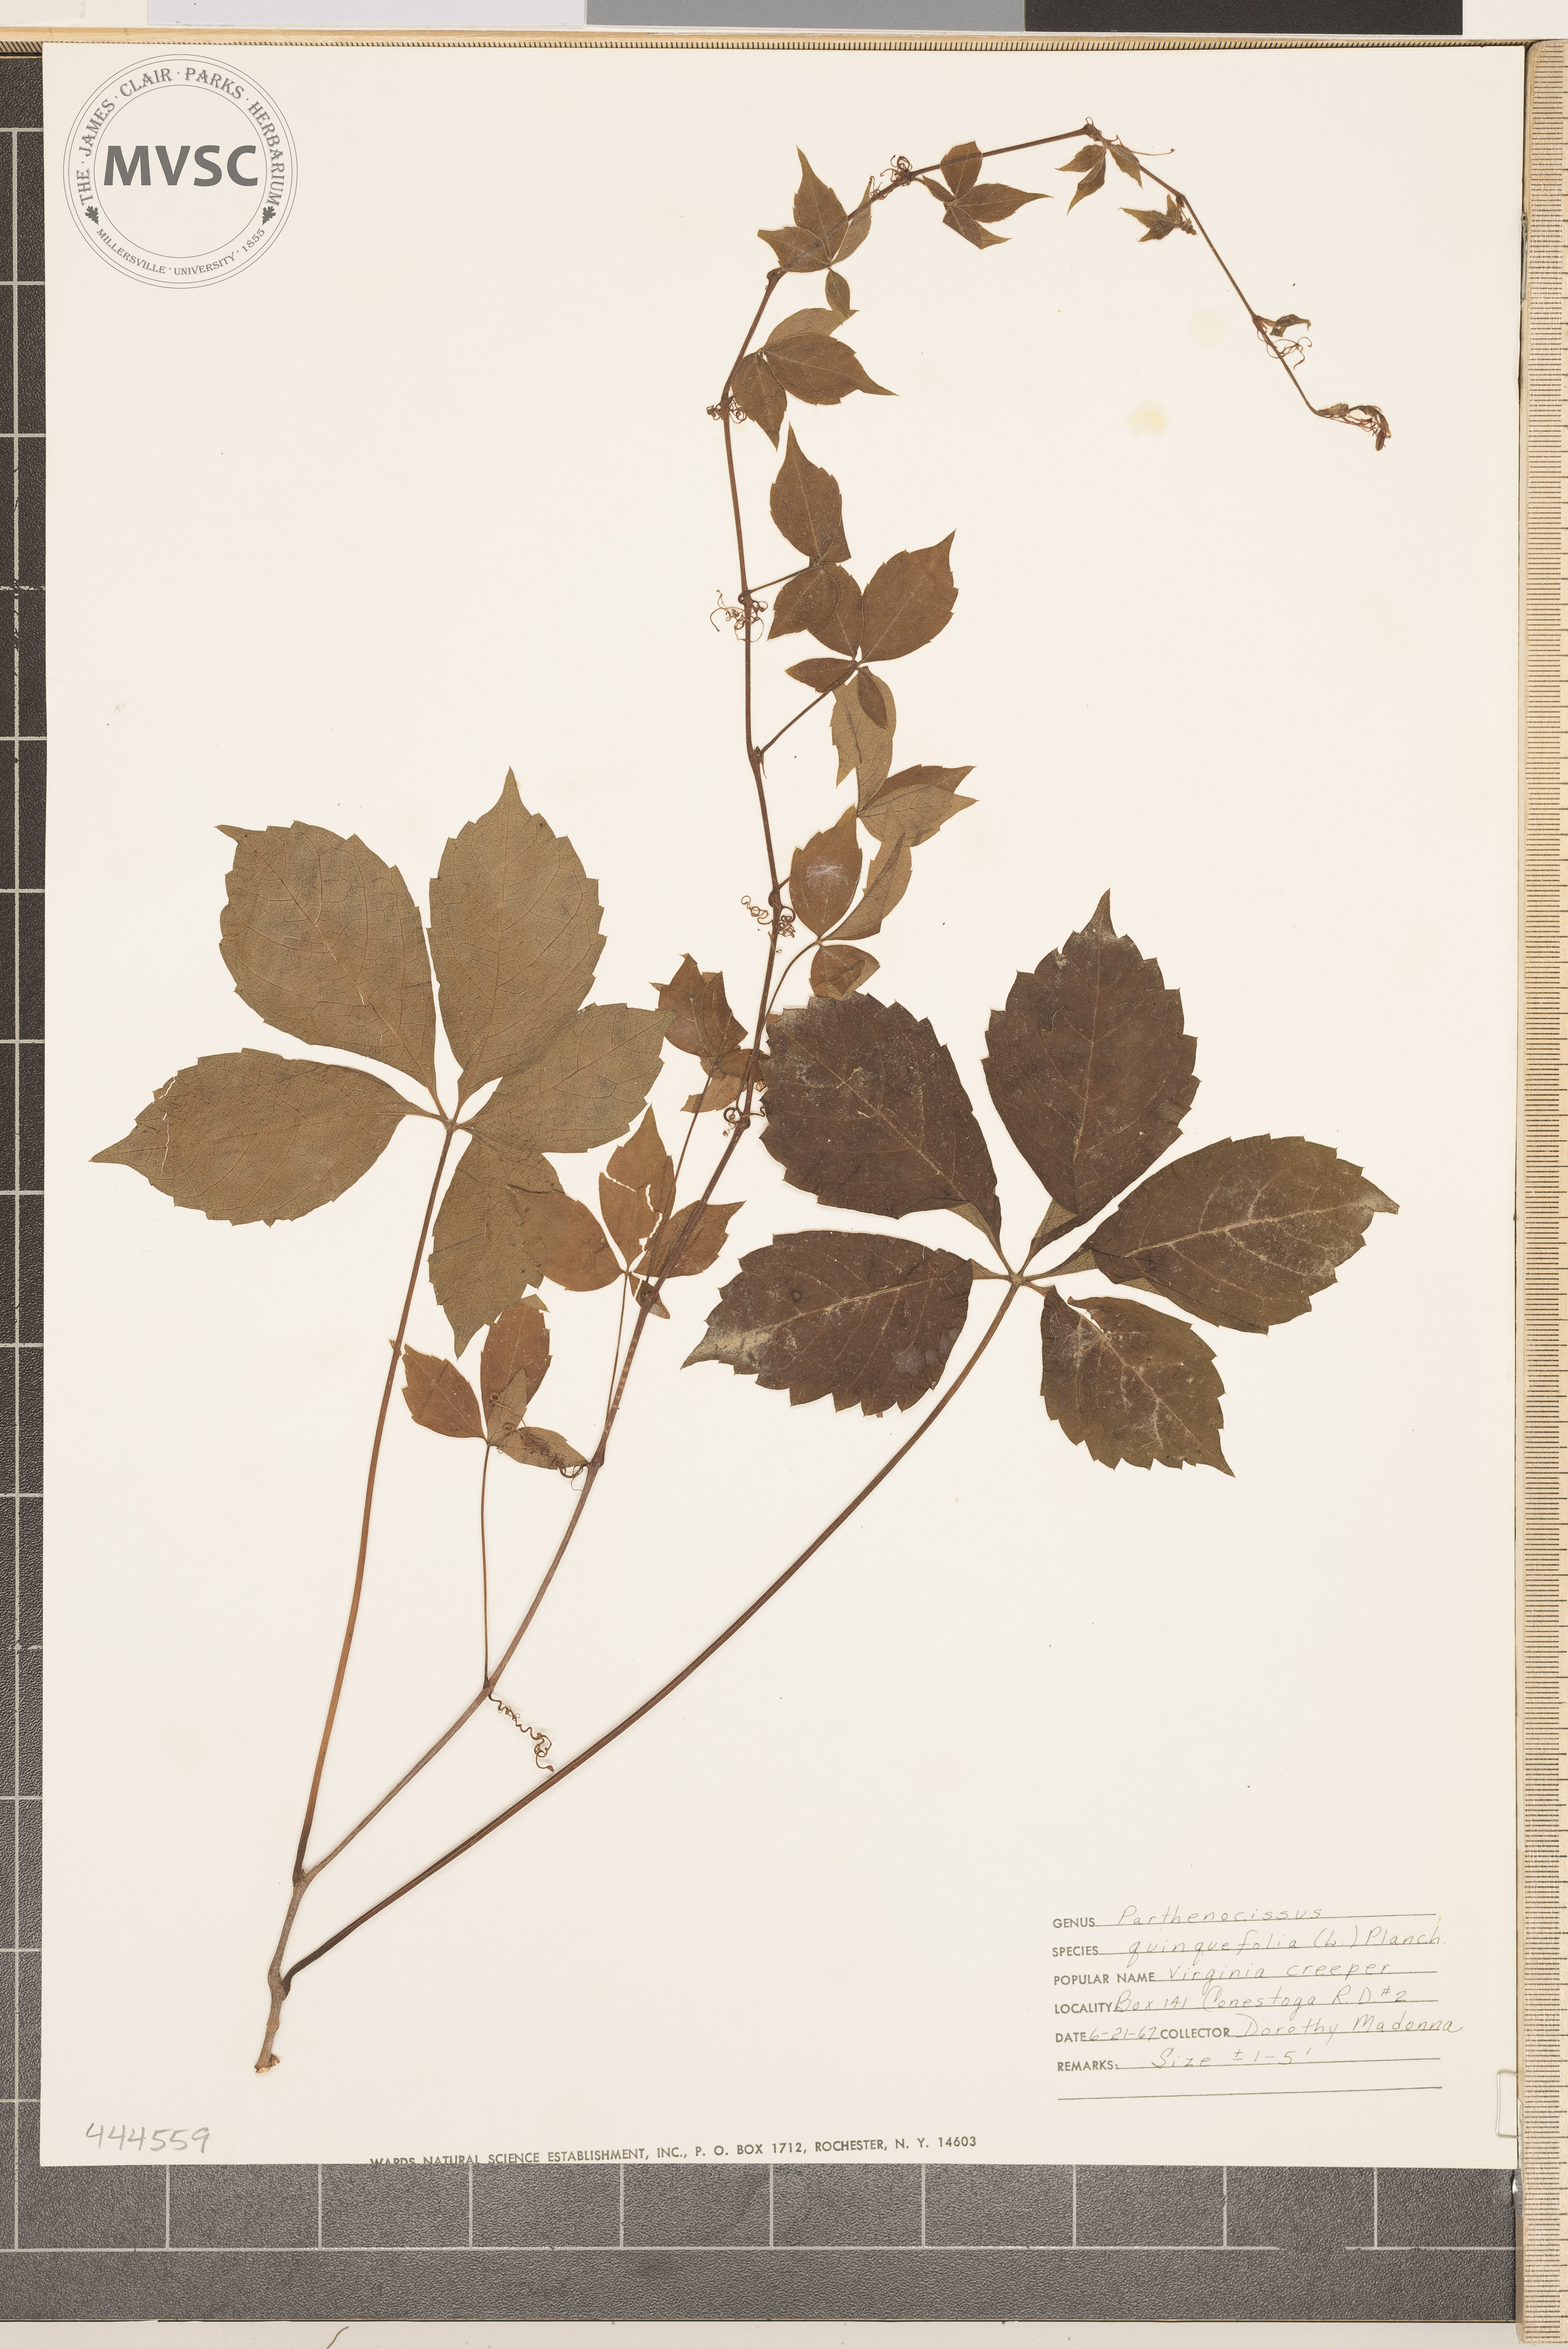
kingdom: Plantae
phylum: Tracheophyta
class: Magnoliopsida
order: Vitales
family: Vitaceae
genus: Parthenocissus
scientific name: Parthenocissus quinquefolia
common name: Virginia Creeper
